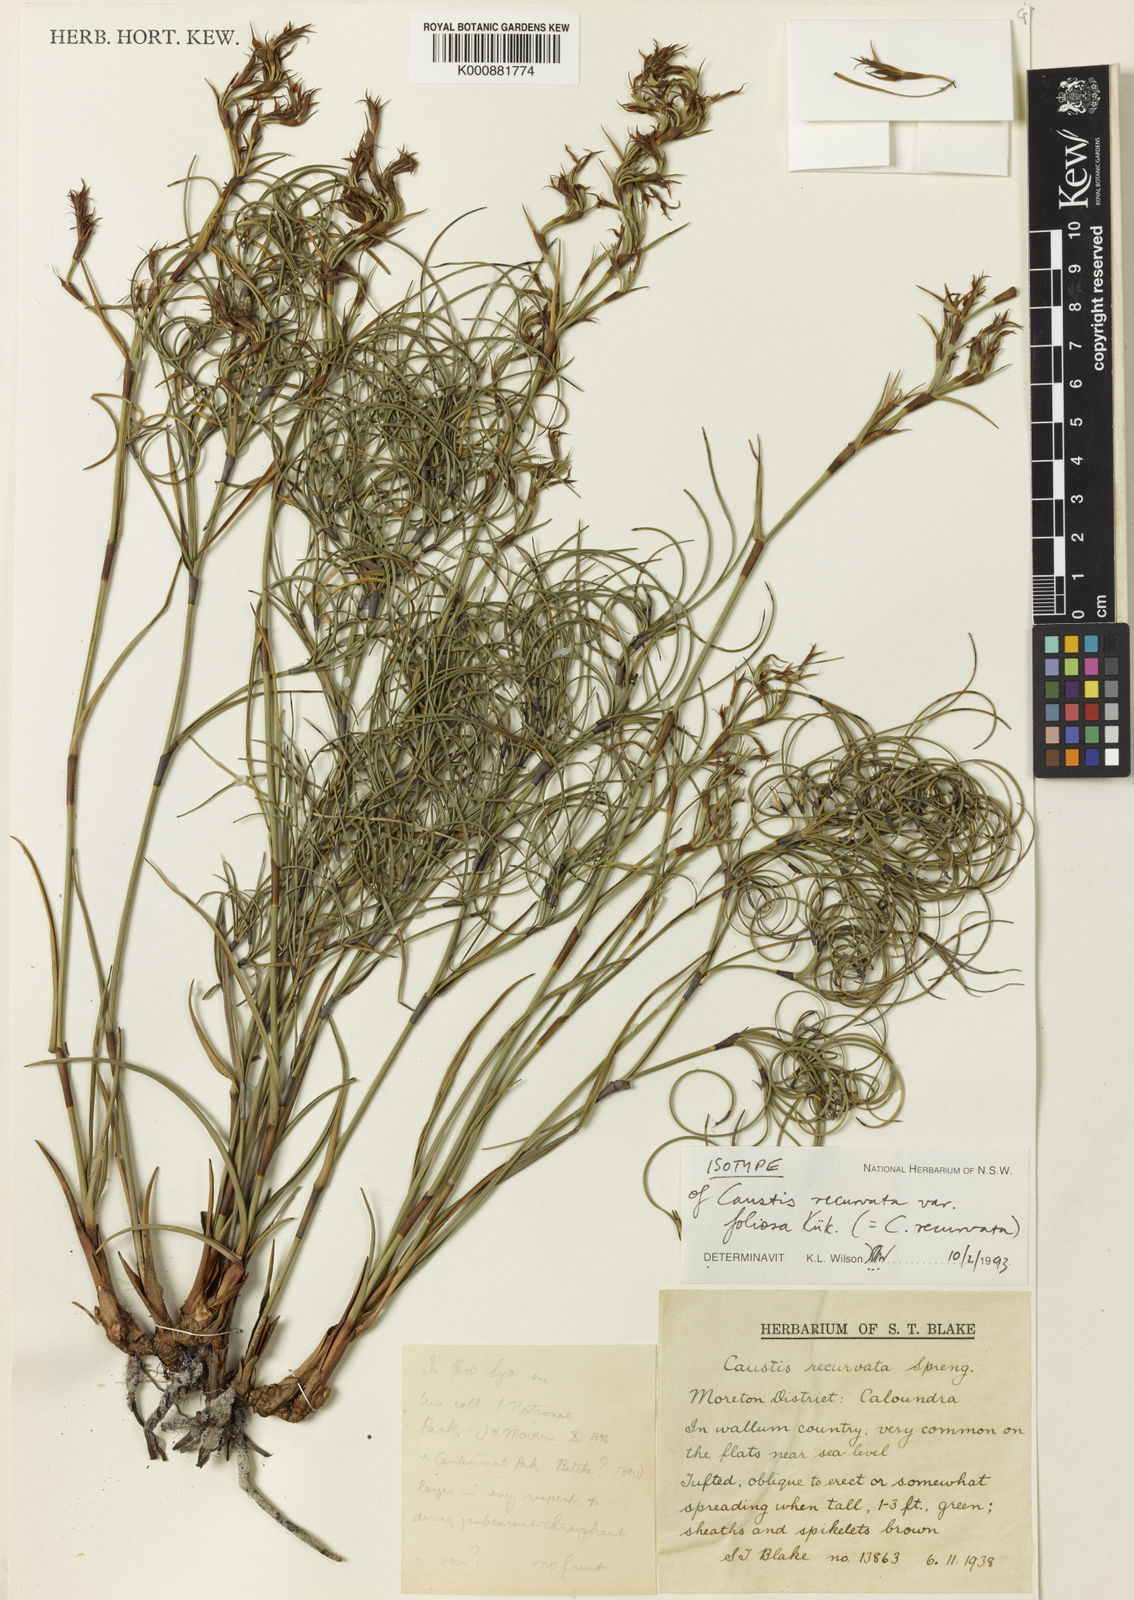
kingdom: Plantae
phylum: Tracheophyta
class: Liliopsida
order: Poales
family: Cyperaceae
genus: Caustis
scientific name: Caustis recurvata
